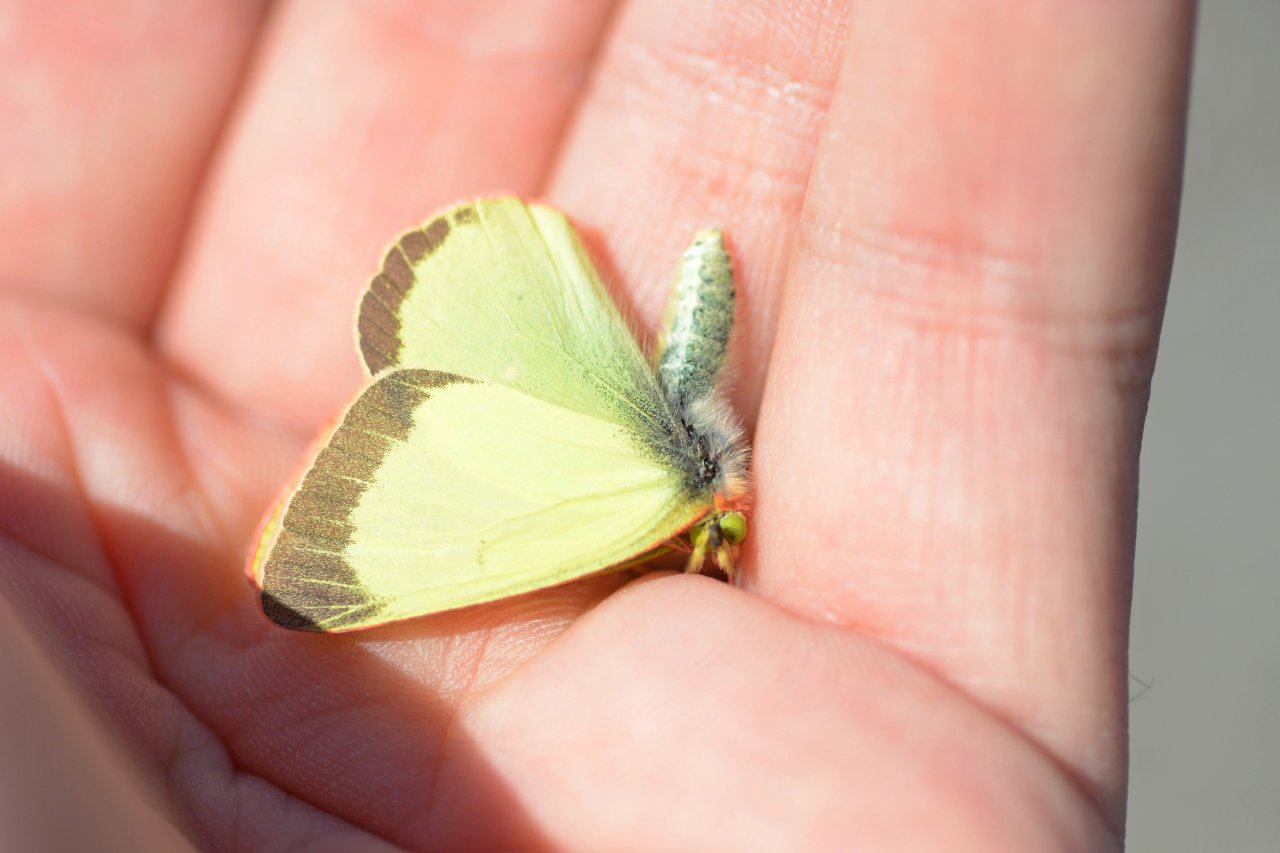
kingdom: Animalia
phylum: Arthropoda
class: Insecta
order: Lepidoptera
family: Pieridae
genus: Colias
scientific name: Colias palaeno
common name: Chippewa Sulphur
